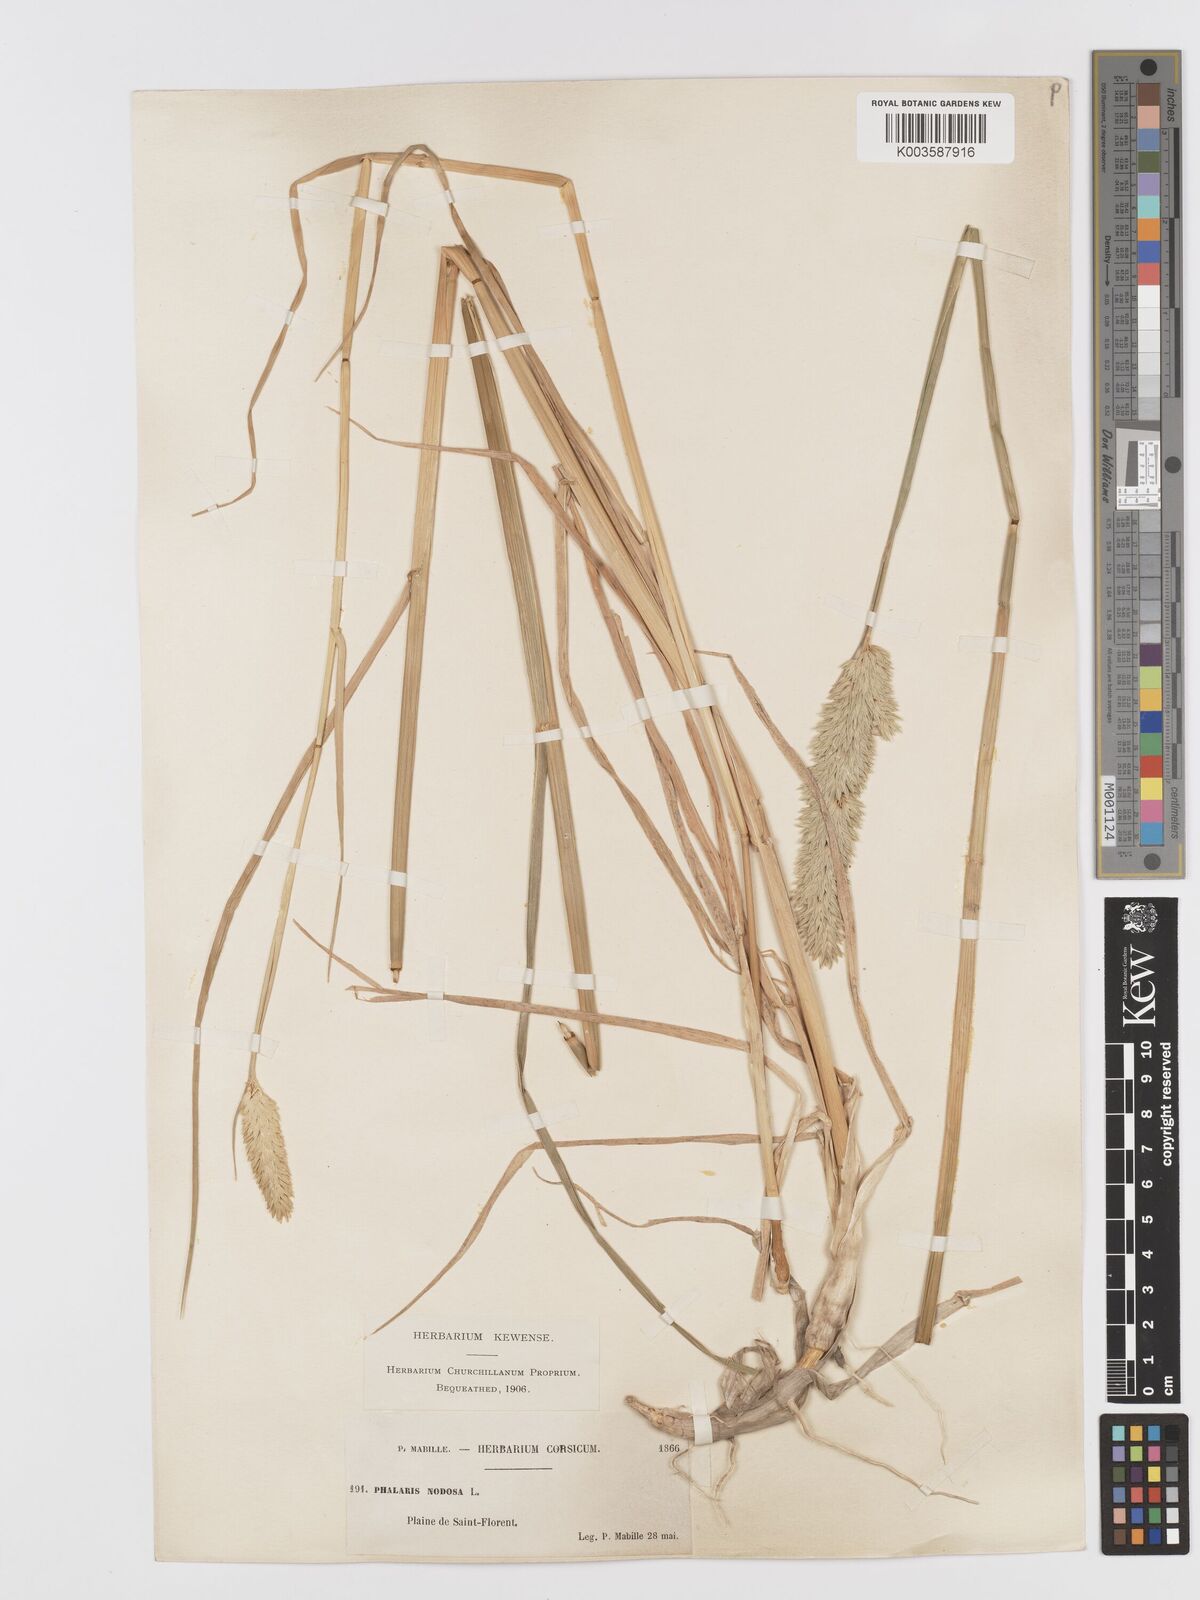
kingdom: Plantae
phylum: Tracheophyta
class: Liliopsida
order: Poales
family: Poaceae
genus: Phalaris
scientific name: Phalaris
